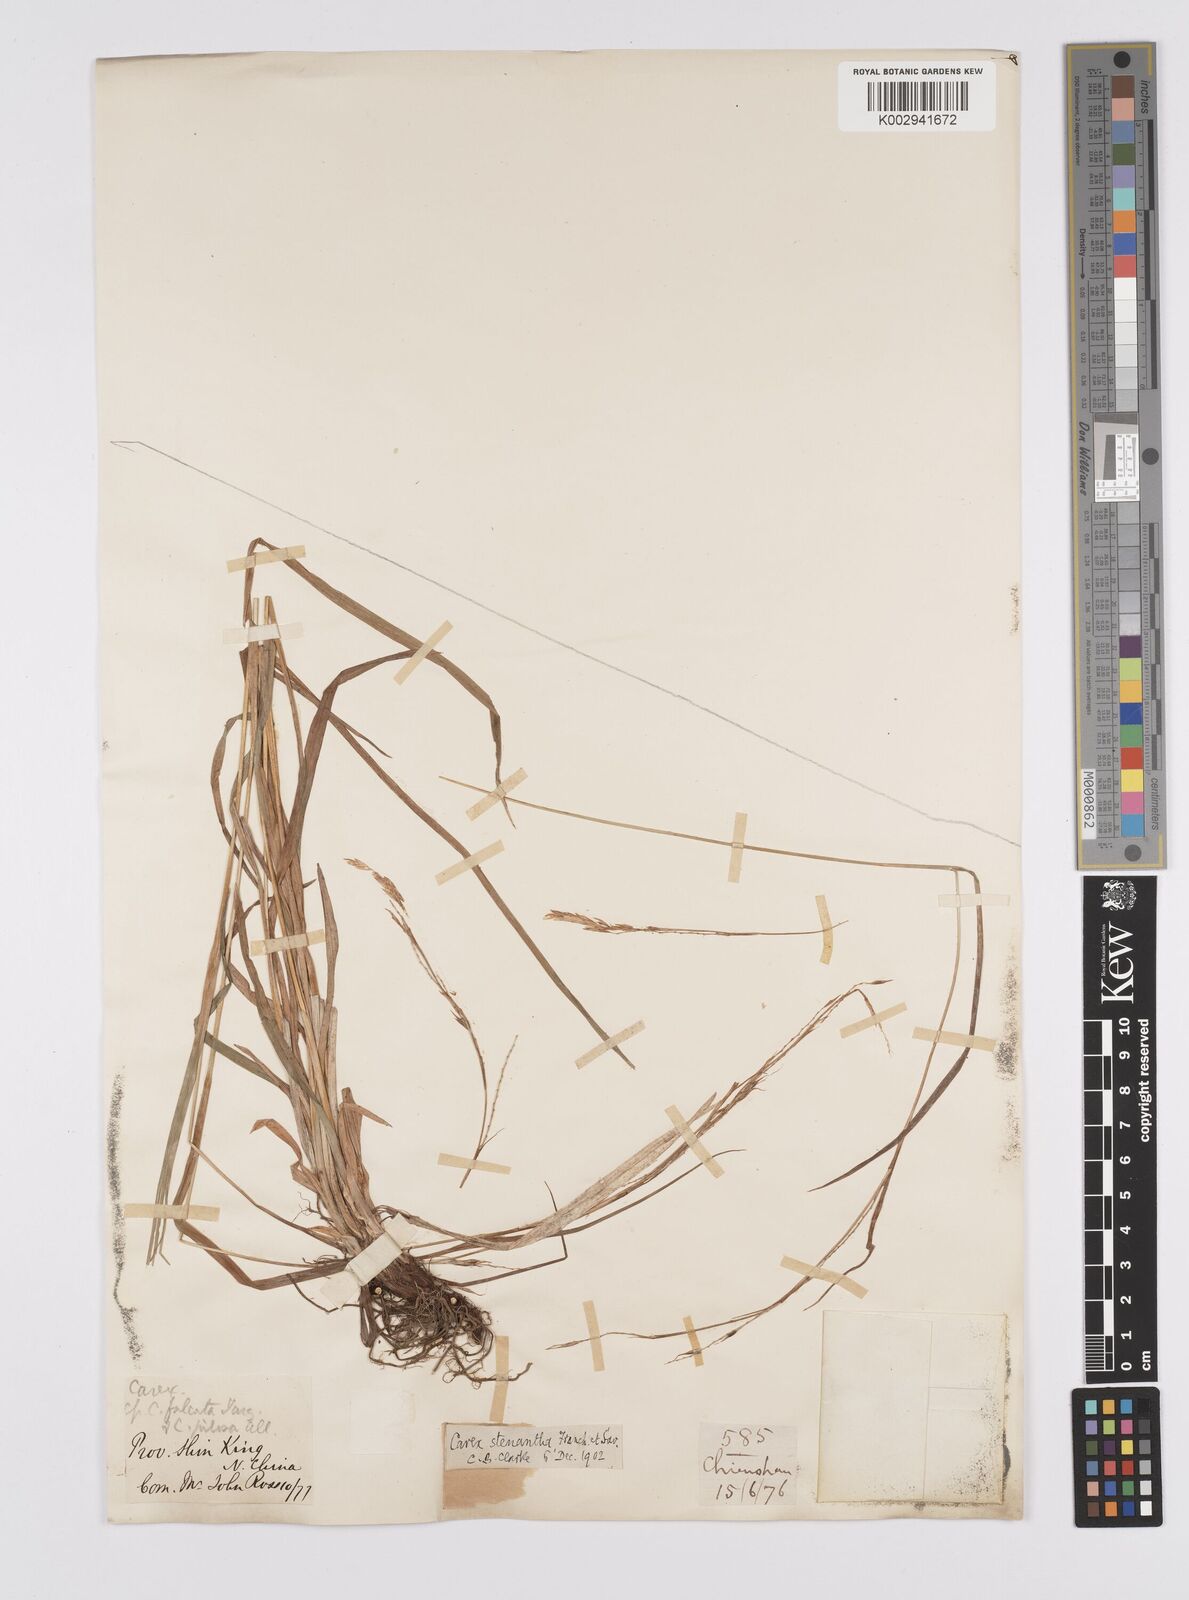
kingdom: Plantae
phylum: Tracheophyta
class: Liliopsida
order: Poales
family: Cyperaceae
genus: Carex
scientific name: Carex stenantha
